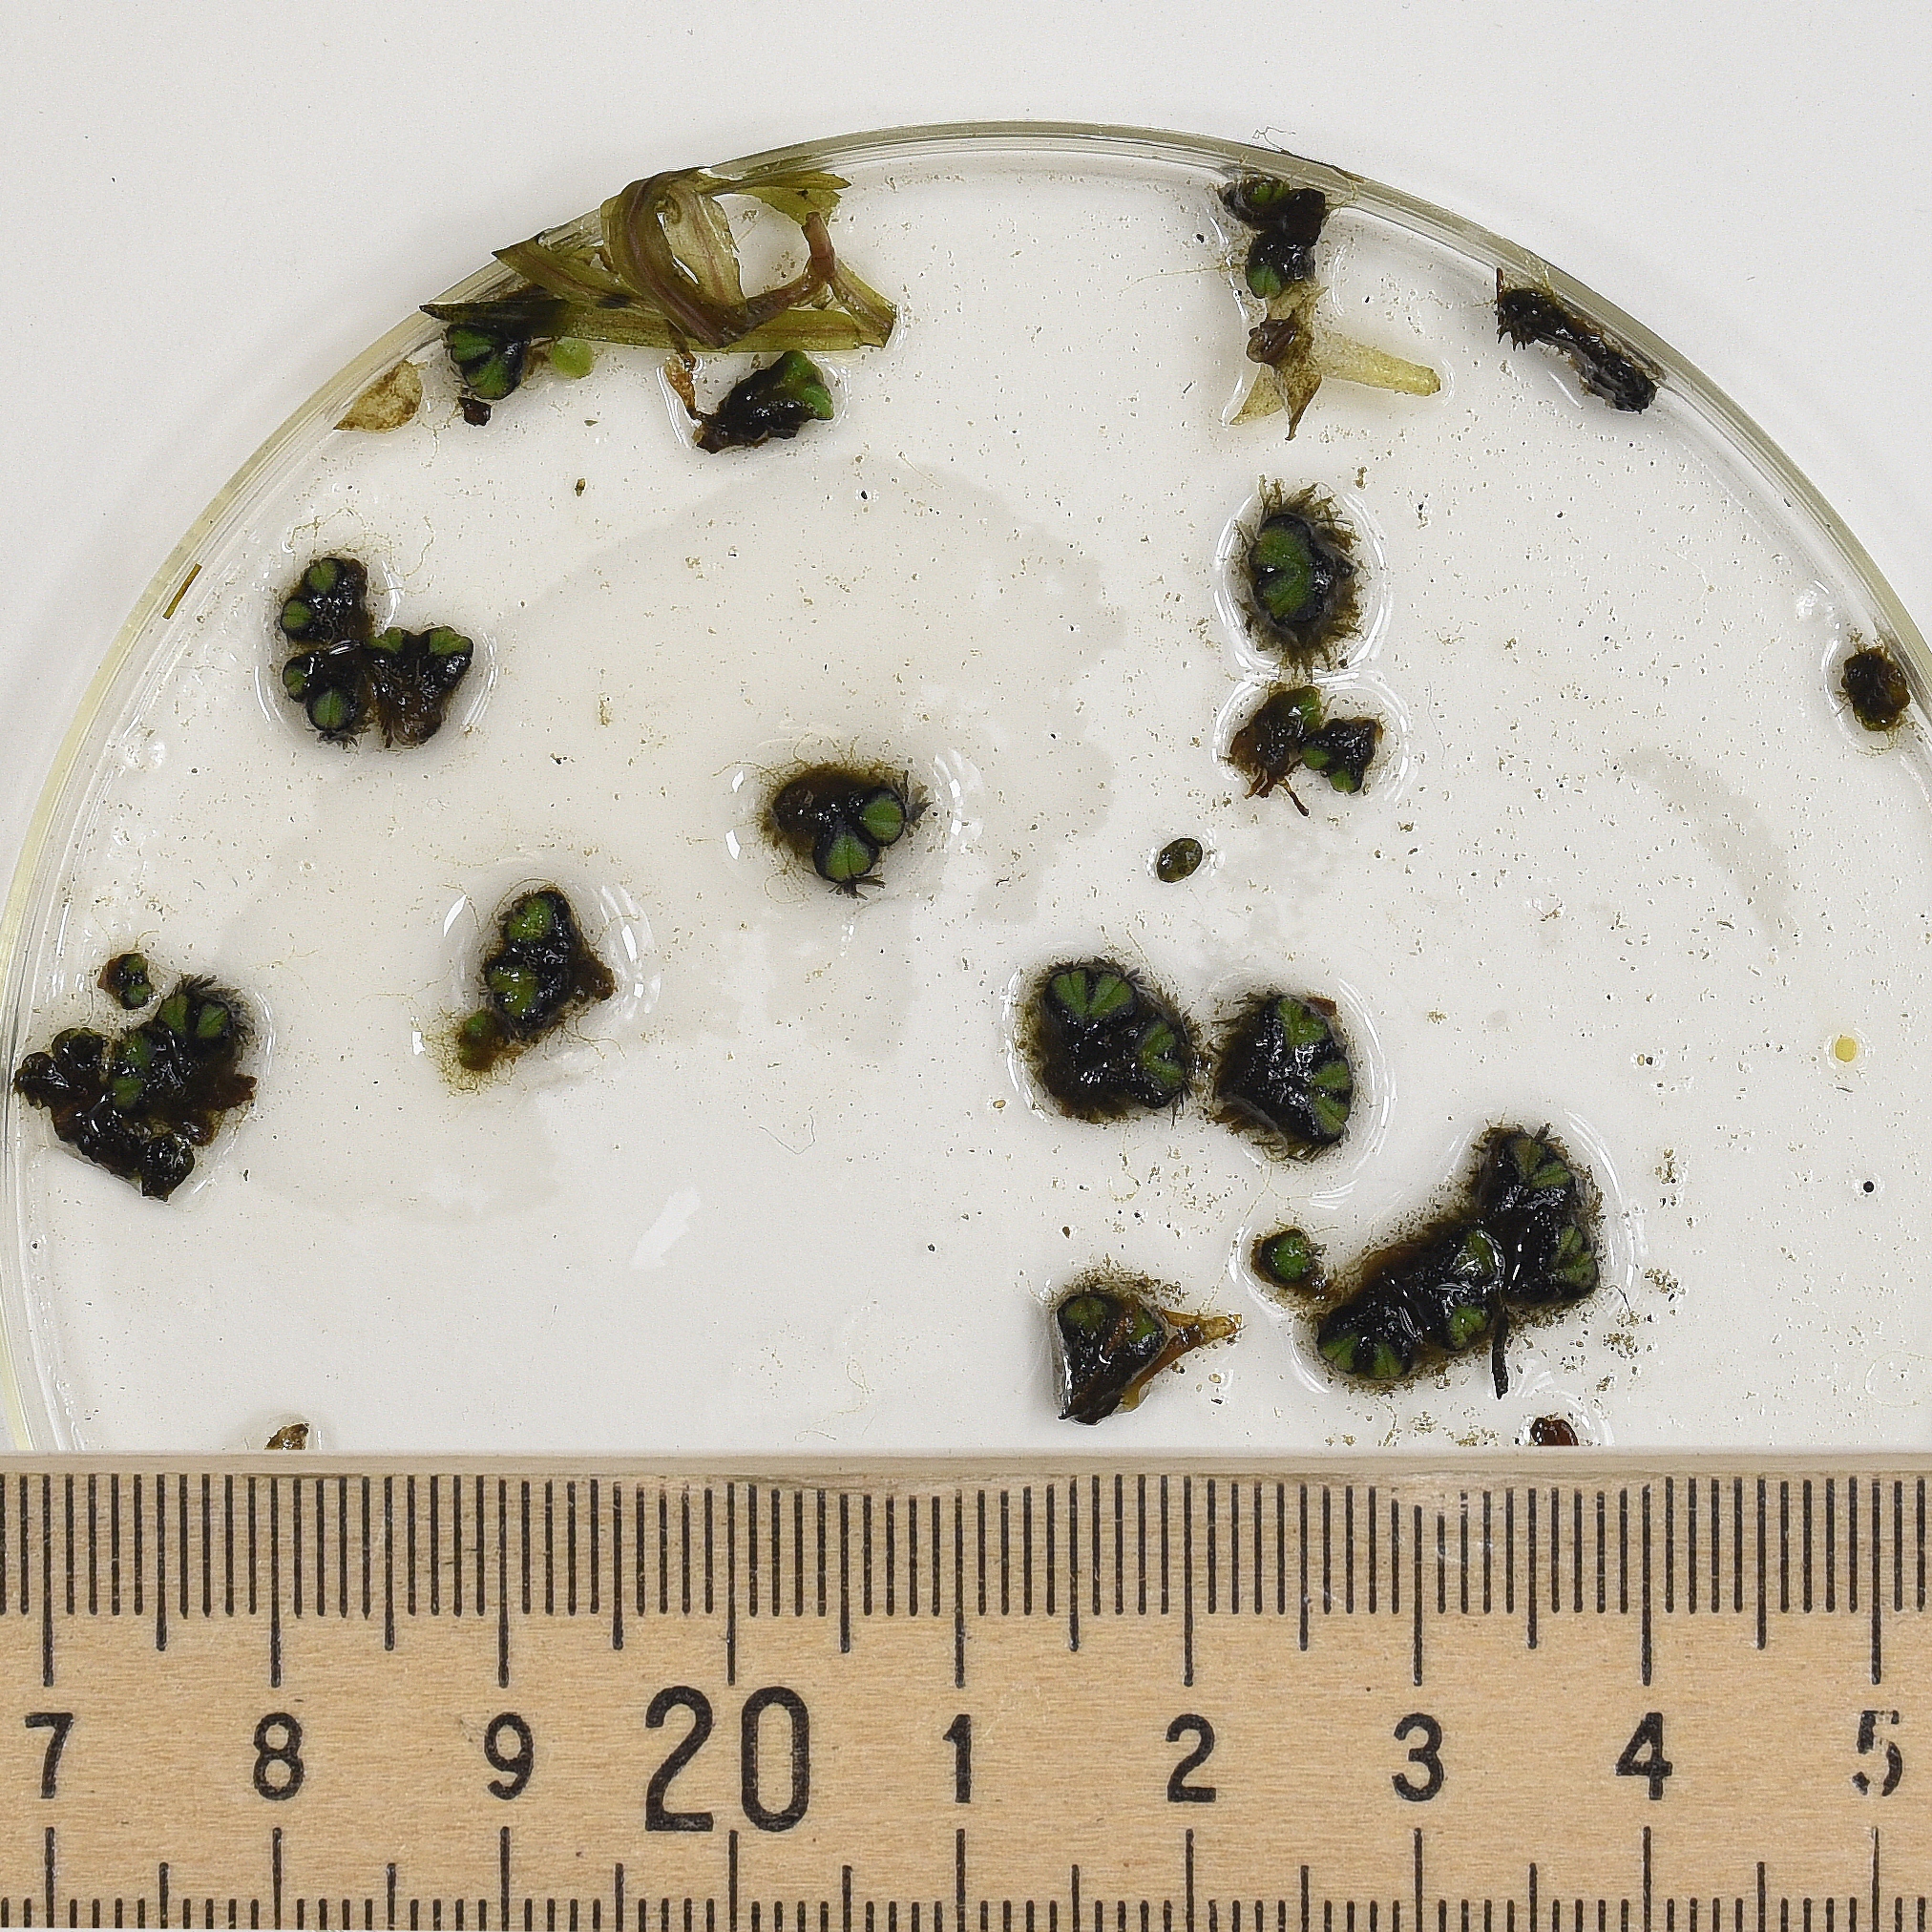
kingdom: Plantae
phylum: Marchantiophyta
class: Marchantiopsida
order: Marchantiales
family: Ricciaceae
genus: Ricciocarpos
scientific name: Ricciocarpos natans
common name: Fringed Heartwort
